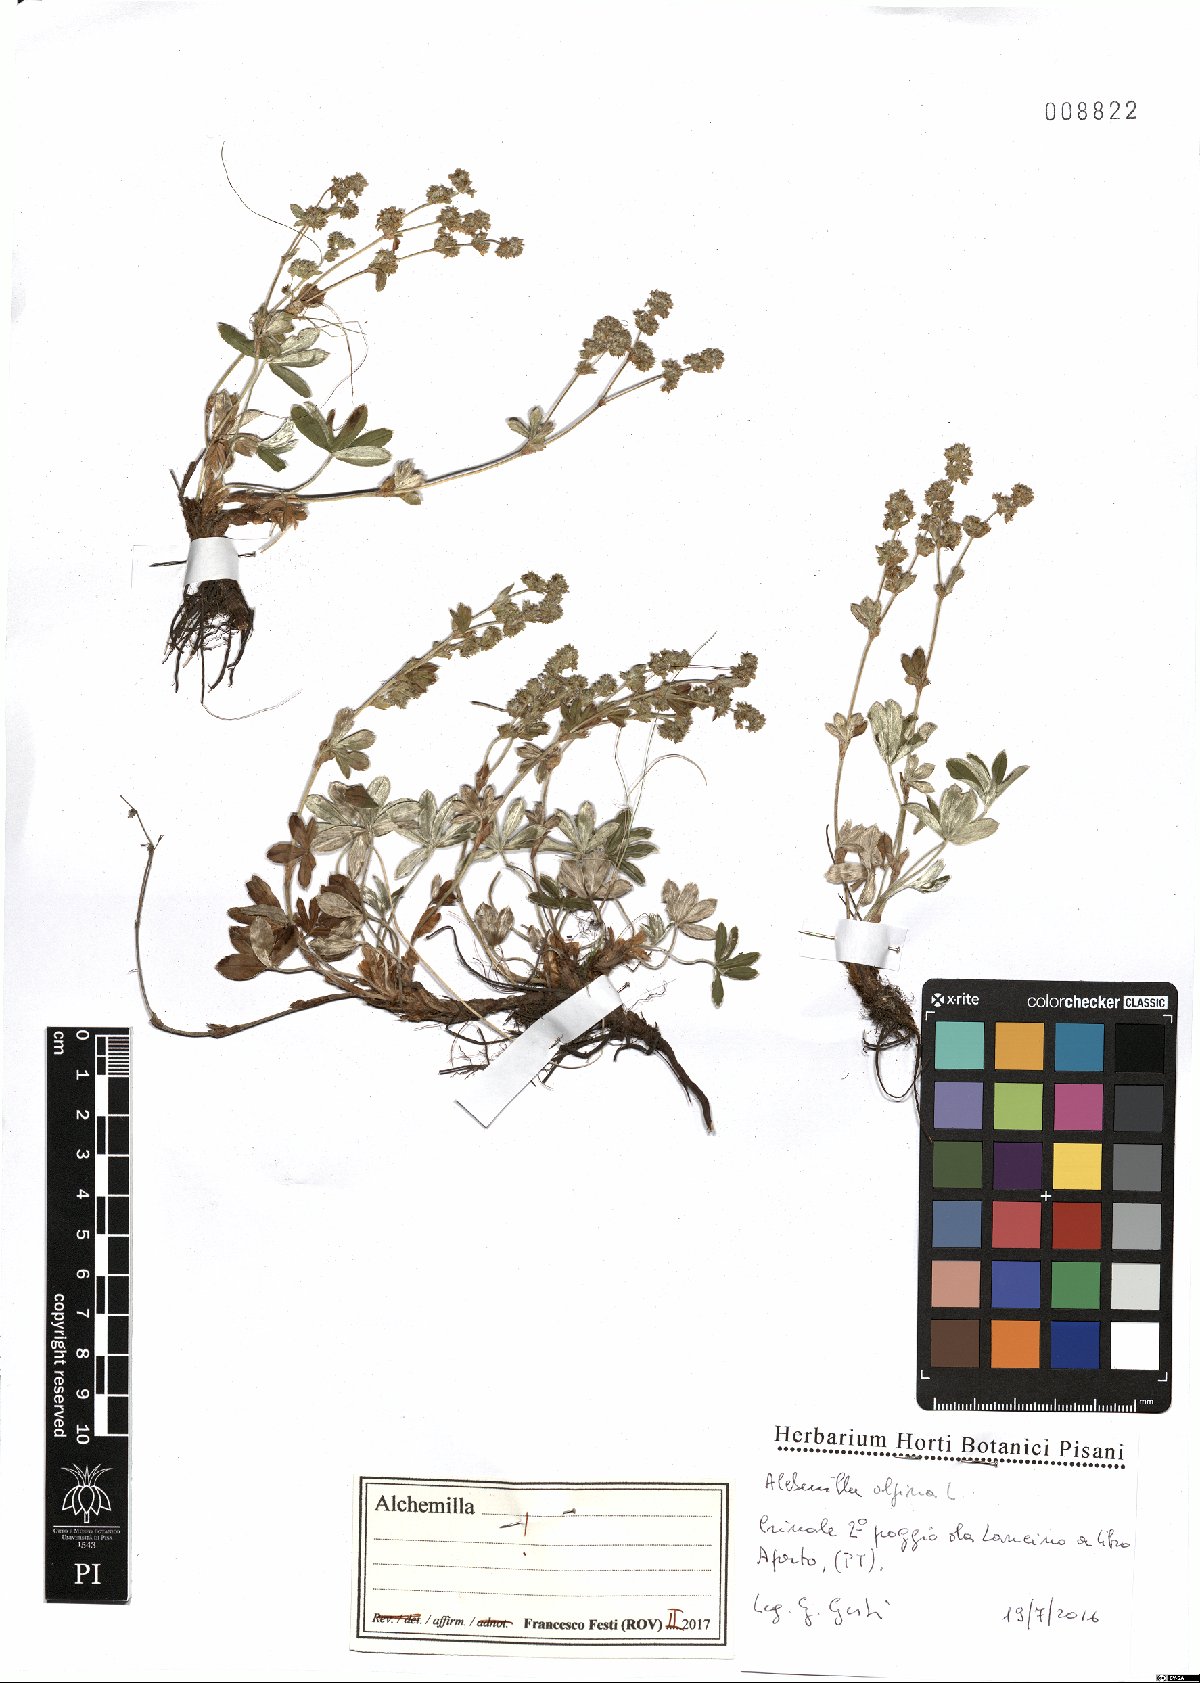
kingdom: Plantae
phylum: Tracheophyta
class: Magnoliopsida
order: Rosales
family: Rosaceae
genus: Alchemilla
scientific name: Alchemilla alpina
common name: Alpine lady's-mantle
